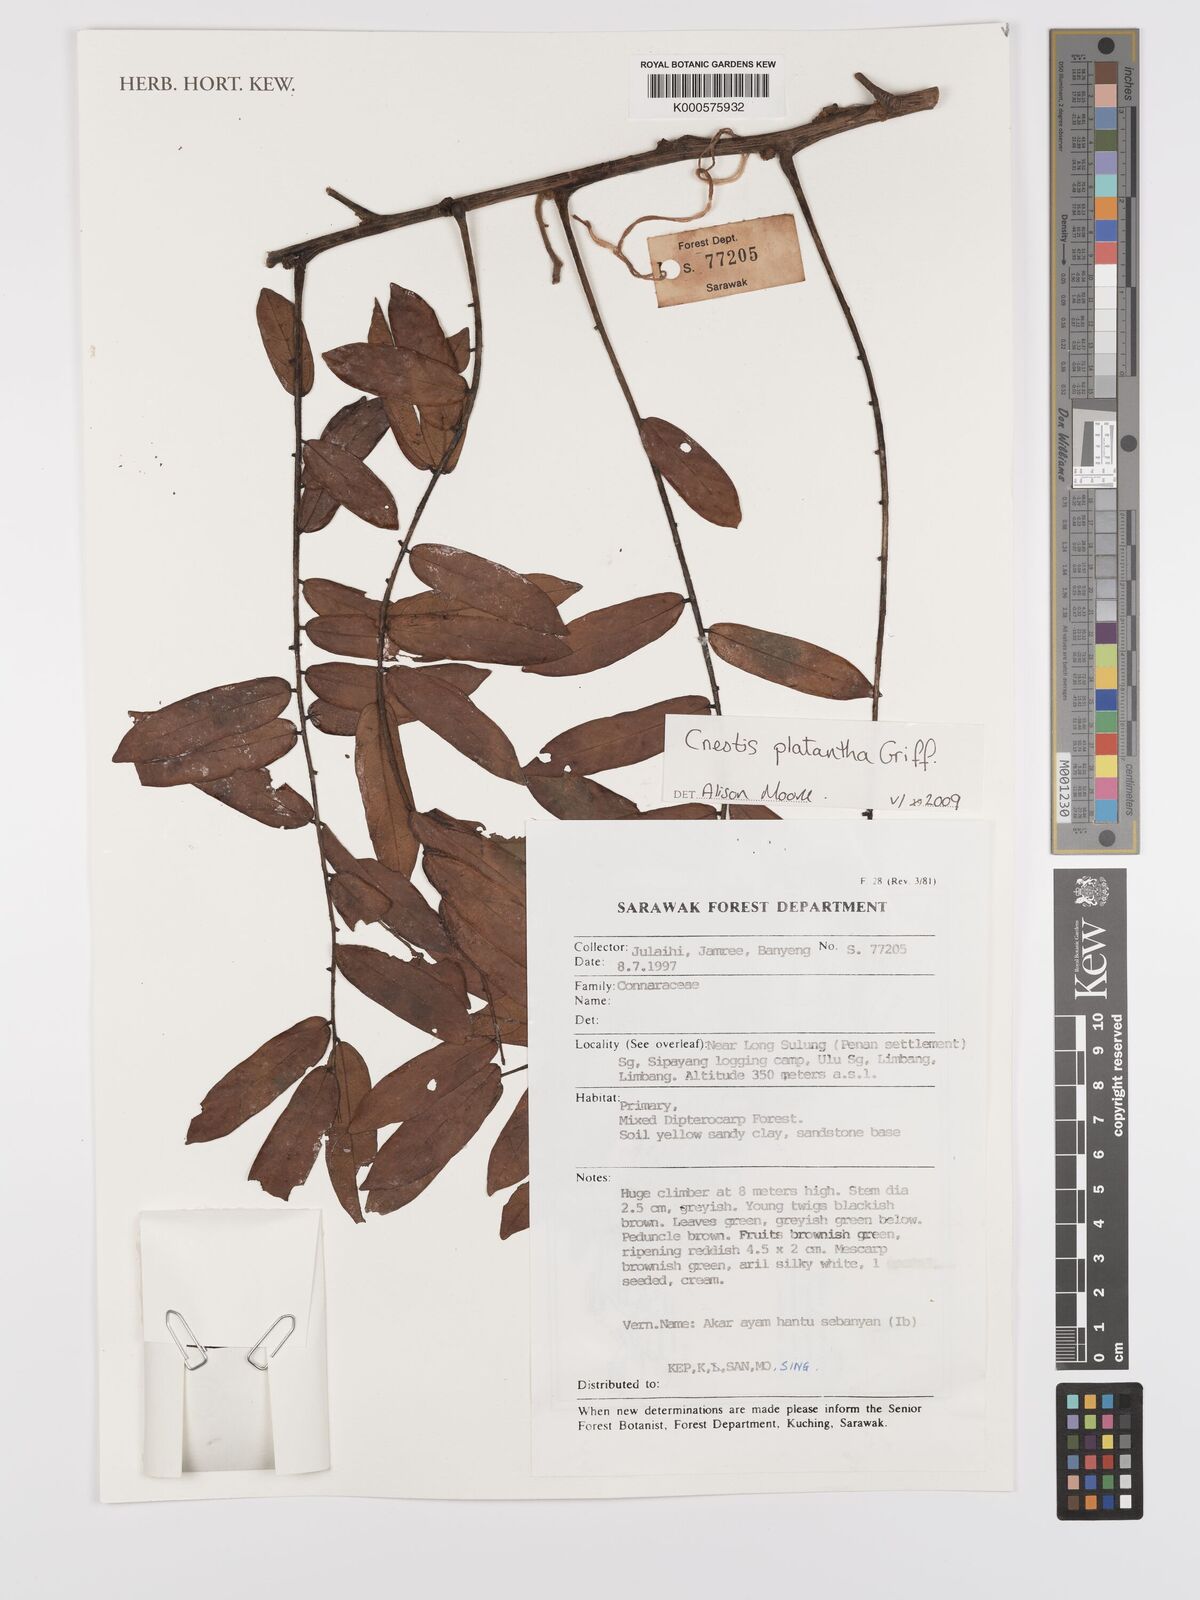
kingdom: Plantae
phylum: Tracheophyta
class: Magnoliopsida
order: Oxalidales
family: Connaraceae
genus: Cnestis
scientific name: Cnestis platantha
